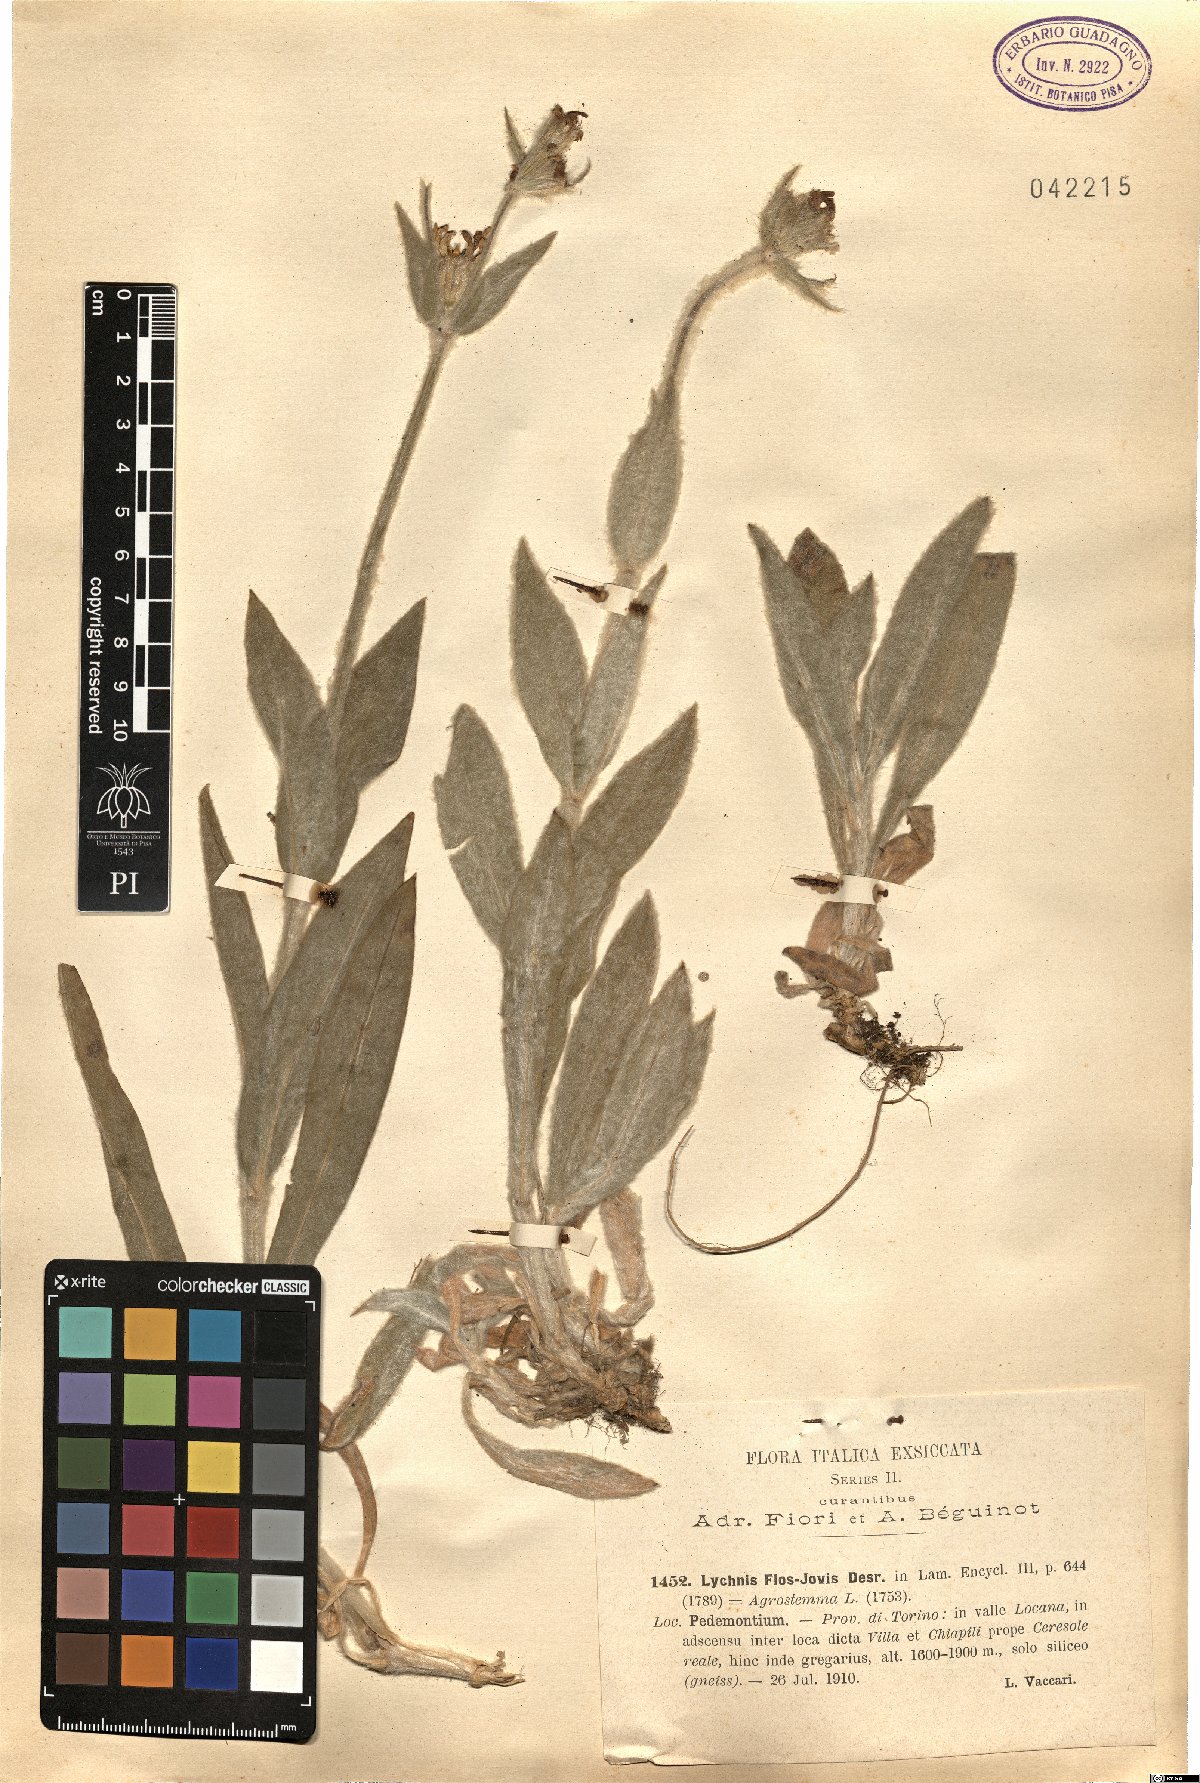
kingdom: Plantae
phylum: Tracheophyta
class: Magnoliopsida
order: Caryophyllales
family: Caryophyllaceae
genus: Silene
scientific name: Silene flos-jovis
